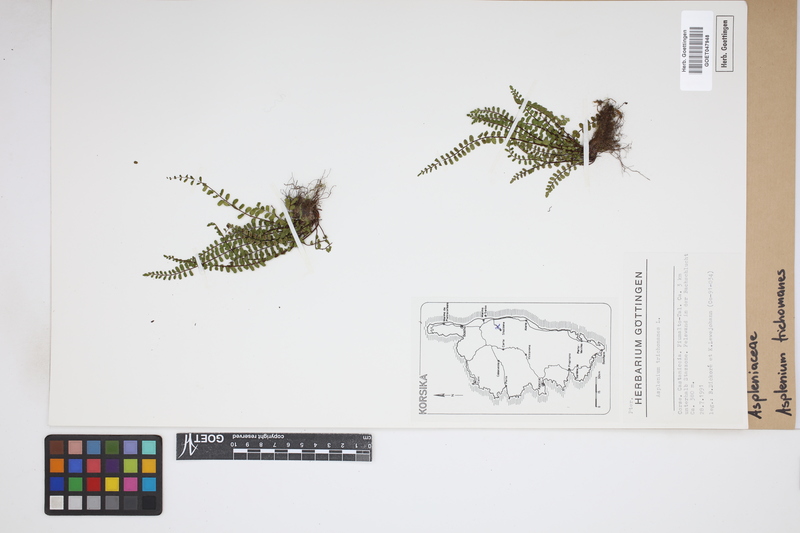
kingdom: Plantae
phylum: Tracheophyta
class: Polypodiopsida
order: Polypodiales
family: Aspleniaceae
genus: Asplenium
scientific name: Asplenium trichomanes
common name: Maidenhair spleenwort
